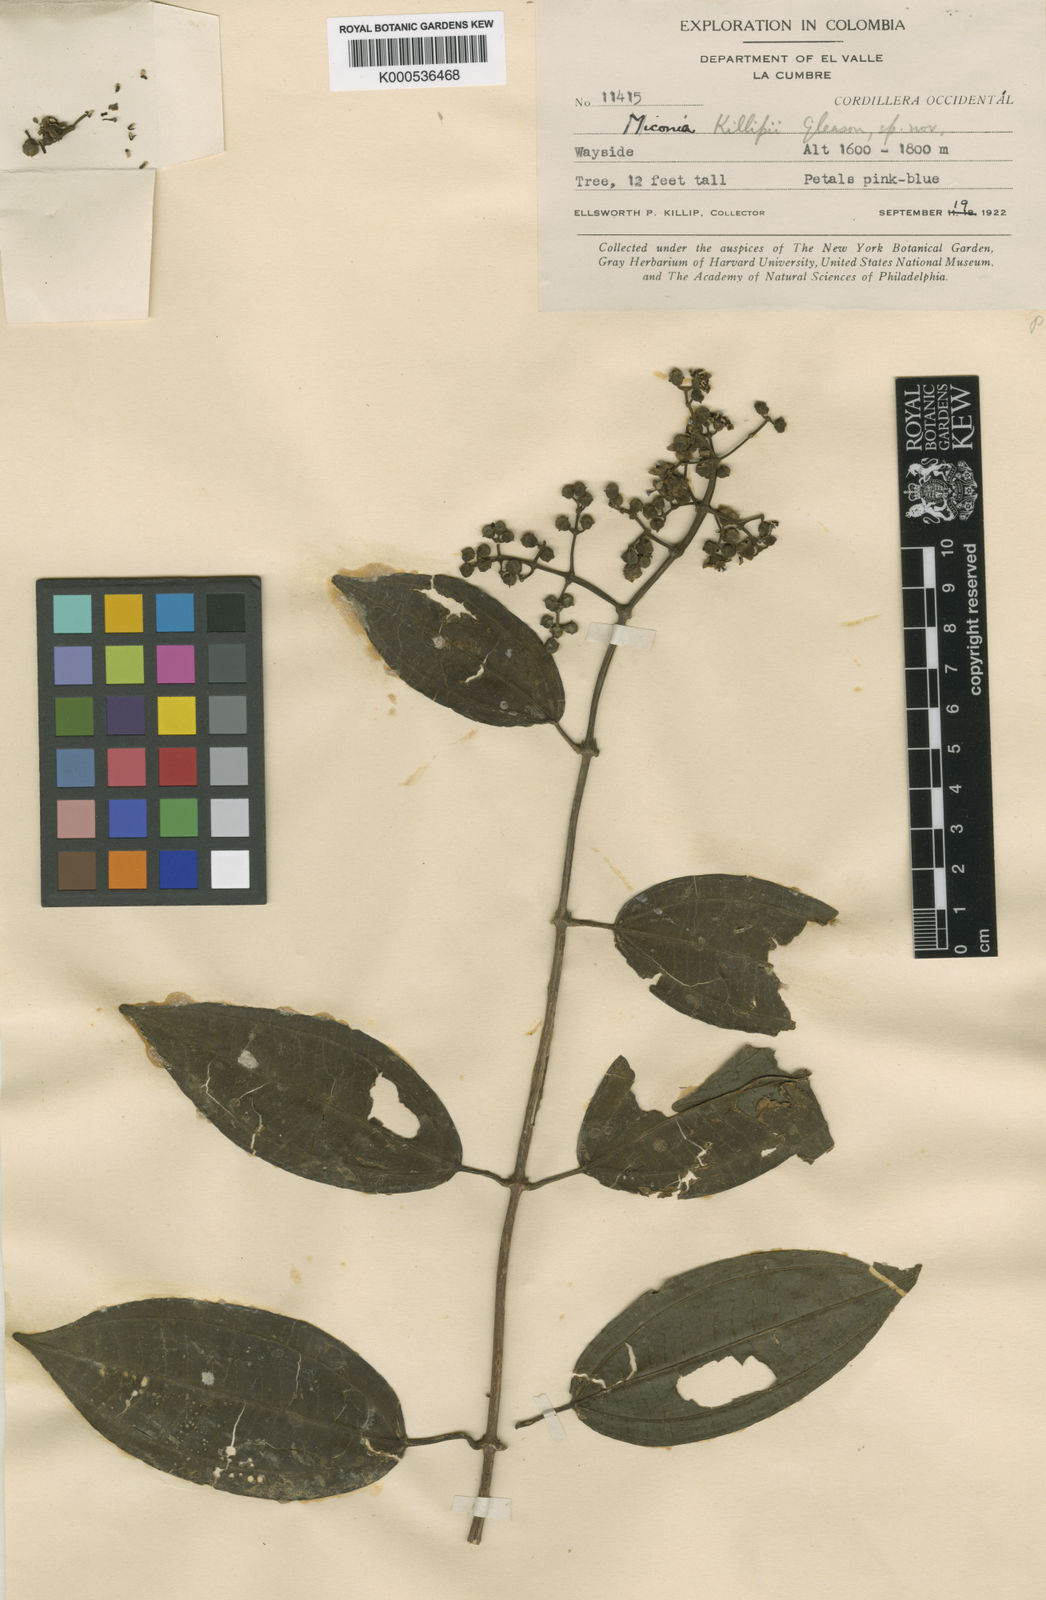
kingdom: Plantae
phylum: Tracheophyta
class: Magnoliopsida
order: Myrtales
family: Melastomataceae
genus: Miconia
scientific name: Miconia loreyoides
